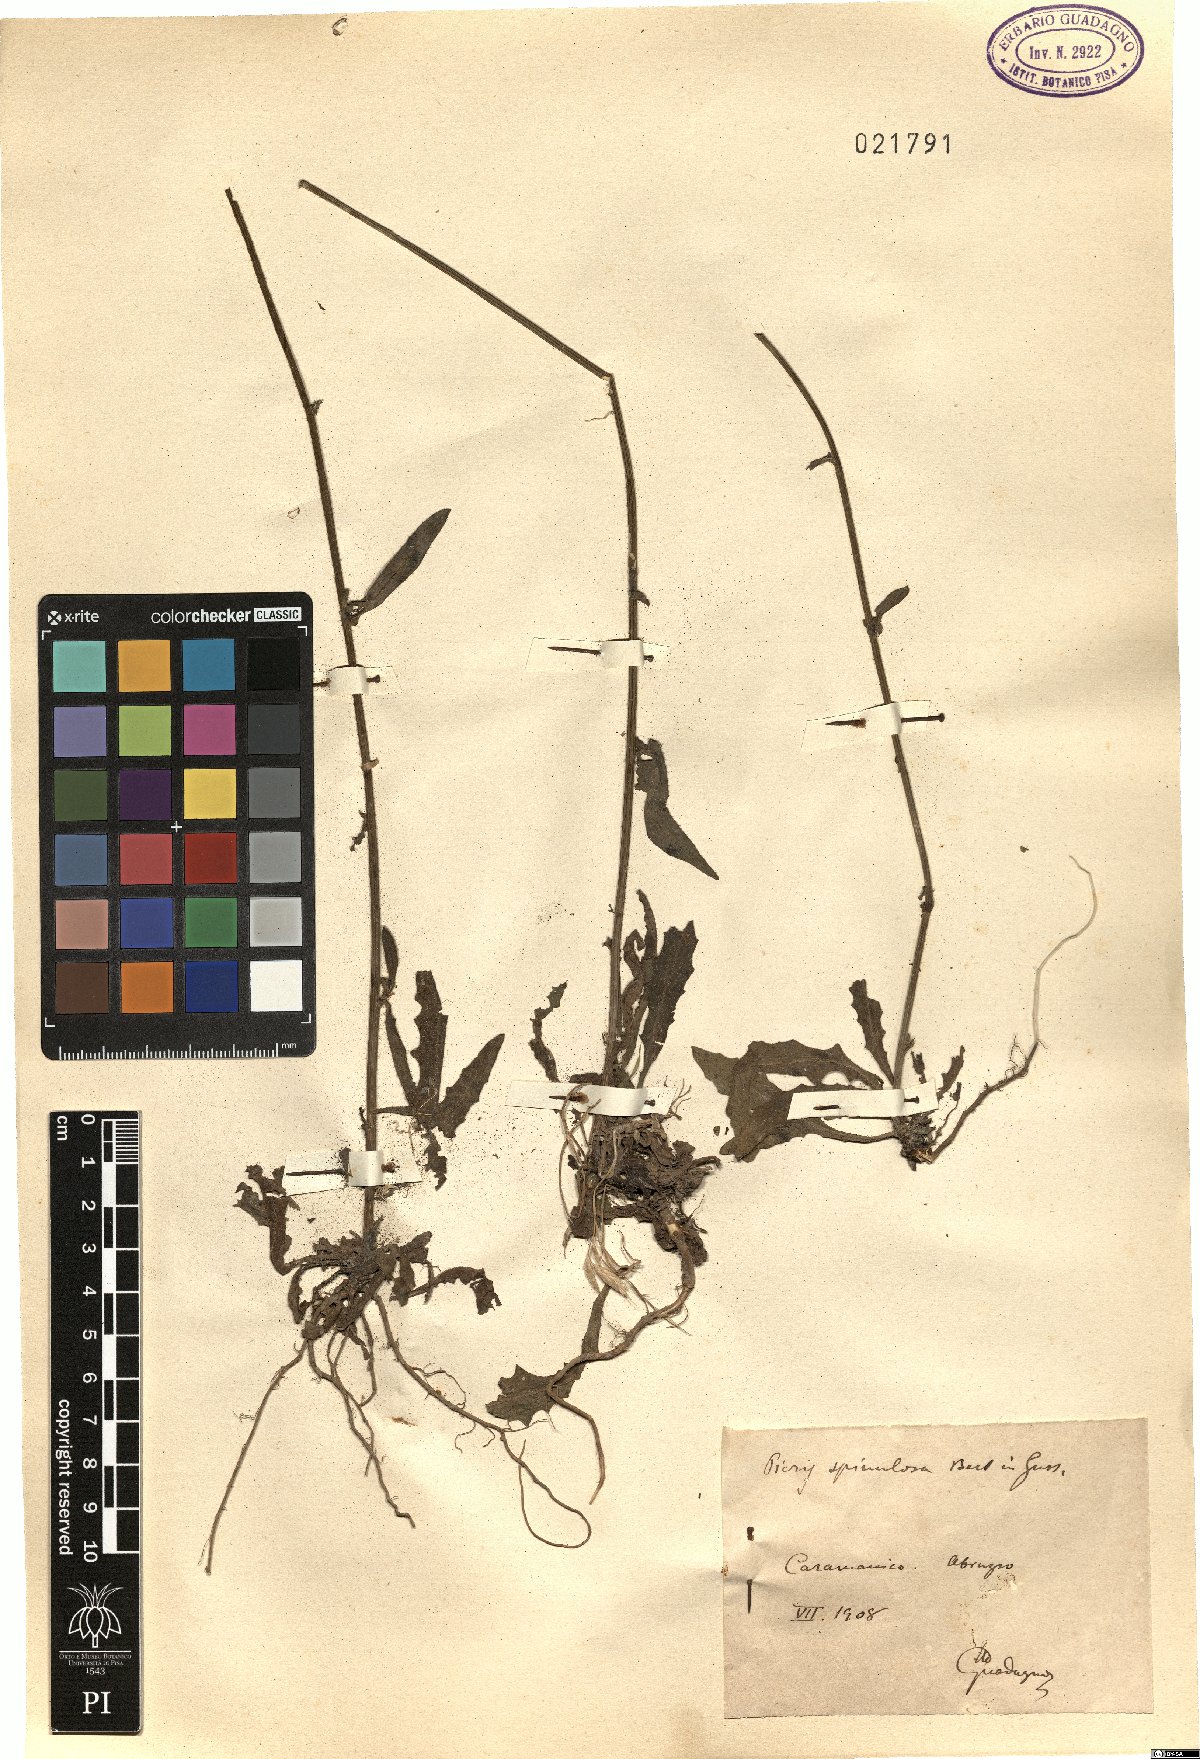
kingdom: Plantae
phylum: Tracheophyta
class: Magnoliopsida
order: Asterales
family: Asteraceae
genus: Picris
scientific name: Picris hieracioides
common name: Hawkweed oxtongue
